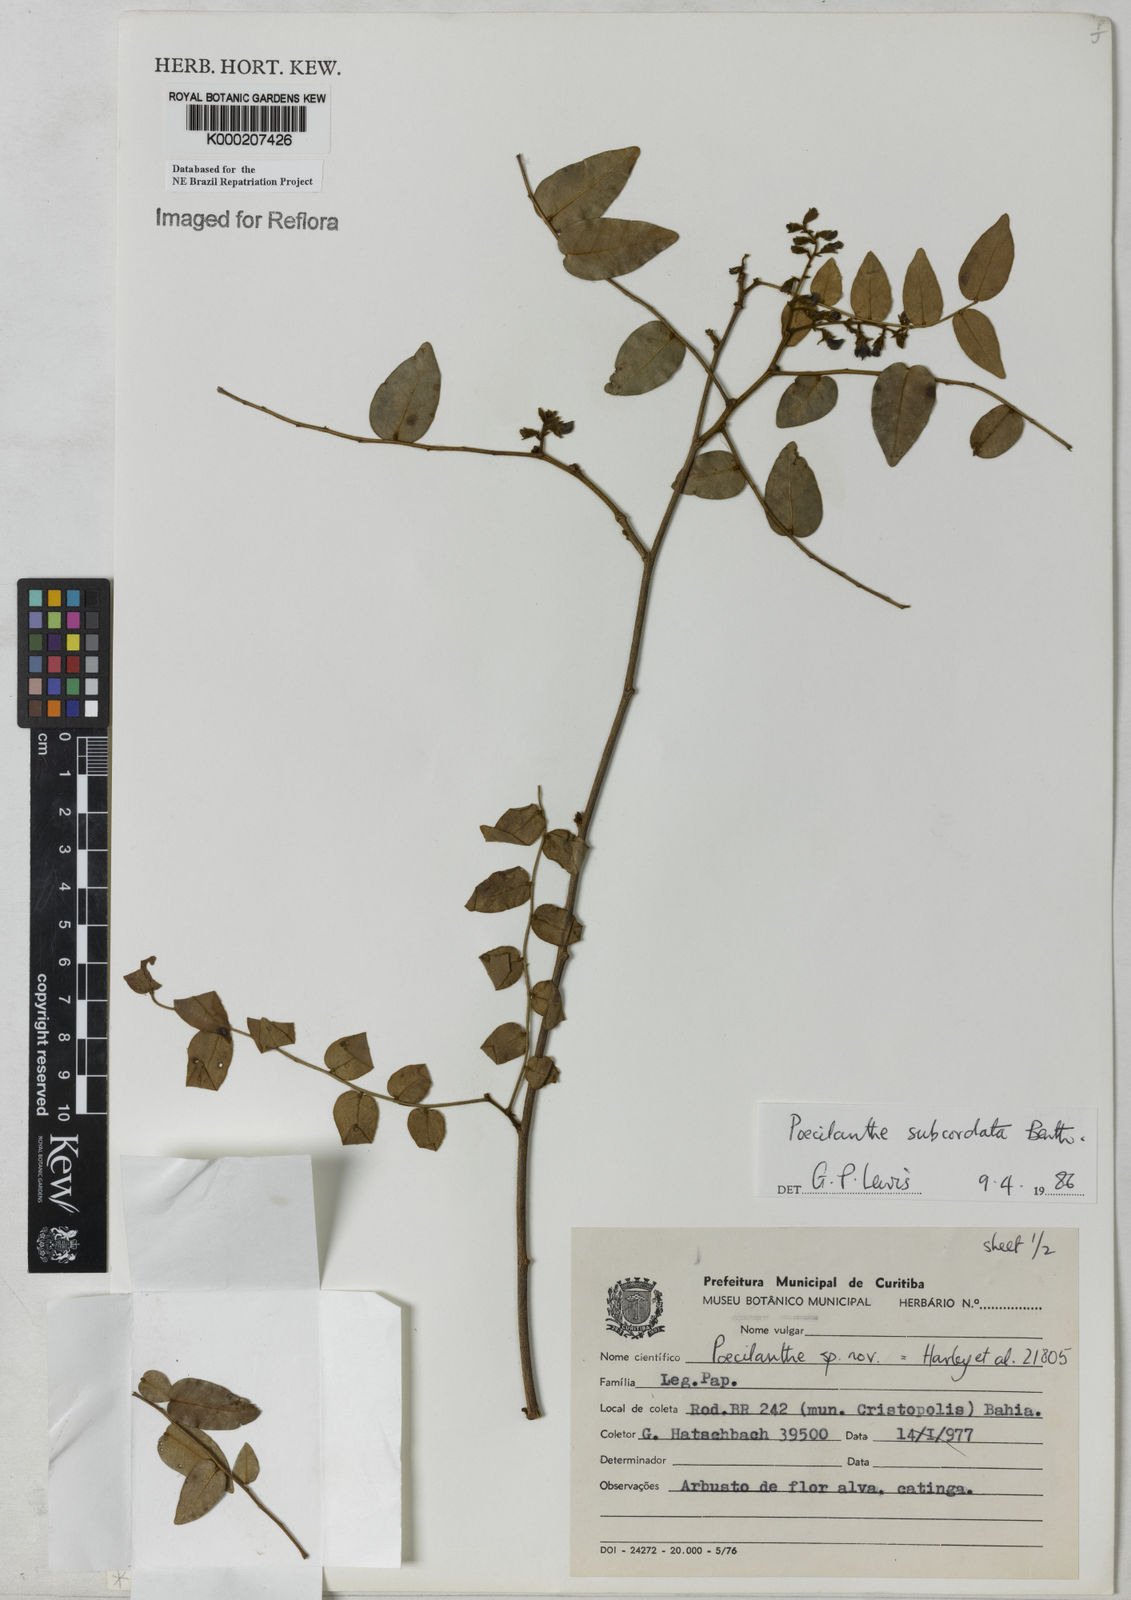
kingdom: Plantae
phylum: Tracheophyta
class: Magnoliopsida
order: Fabales
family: Fabaceae
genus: Poecilanthe
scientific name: Poecilanthe subcordata
